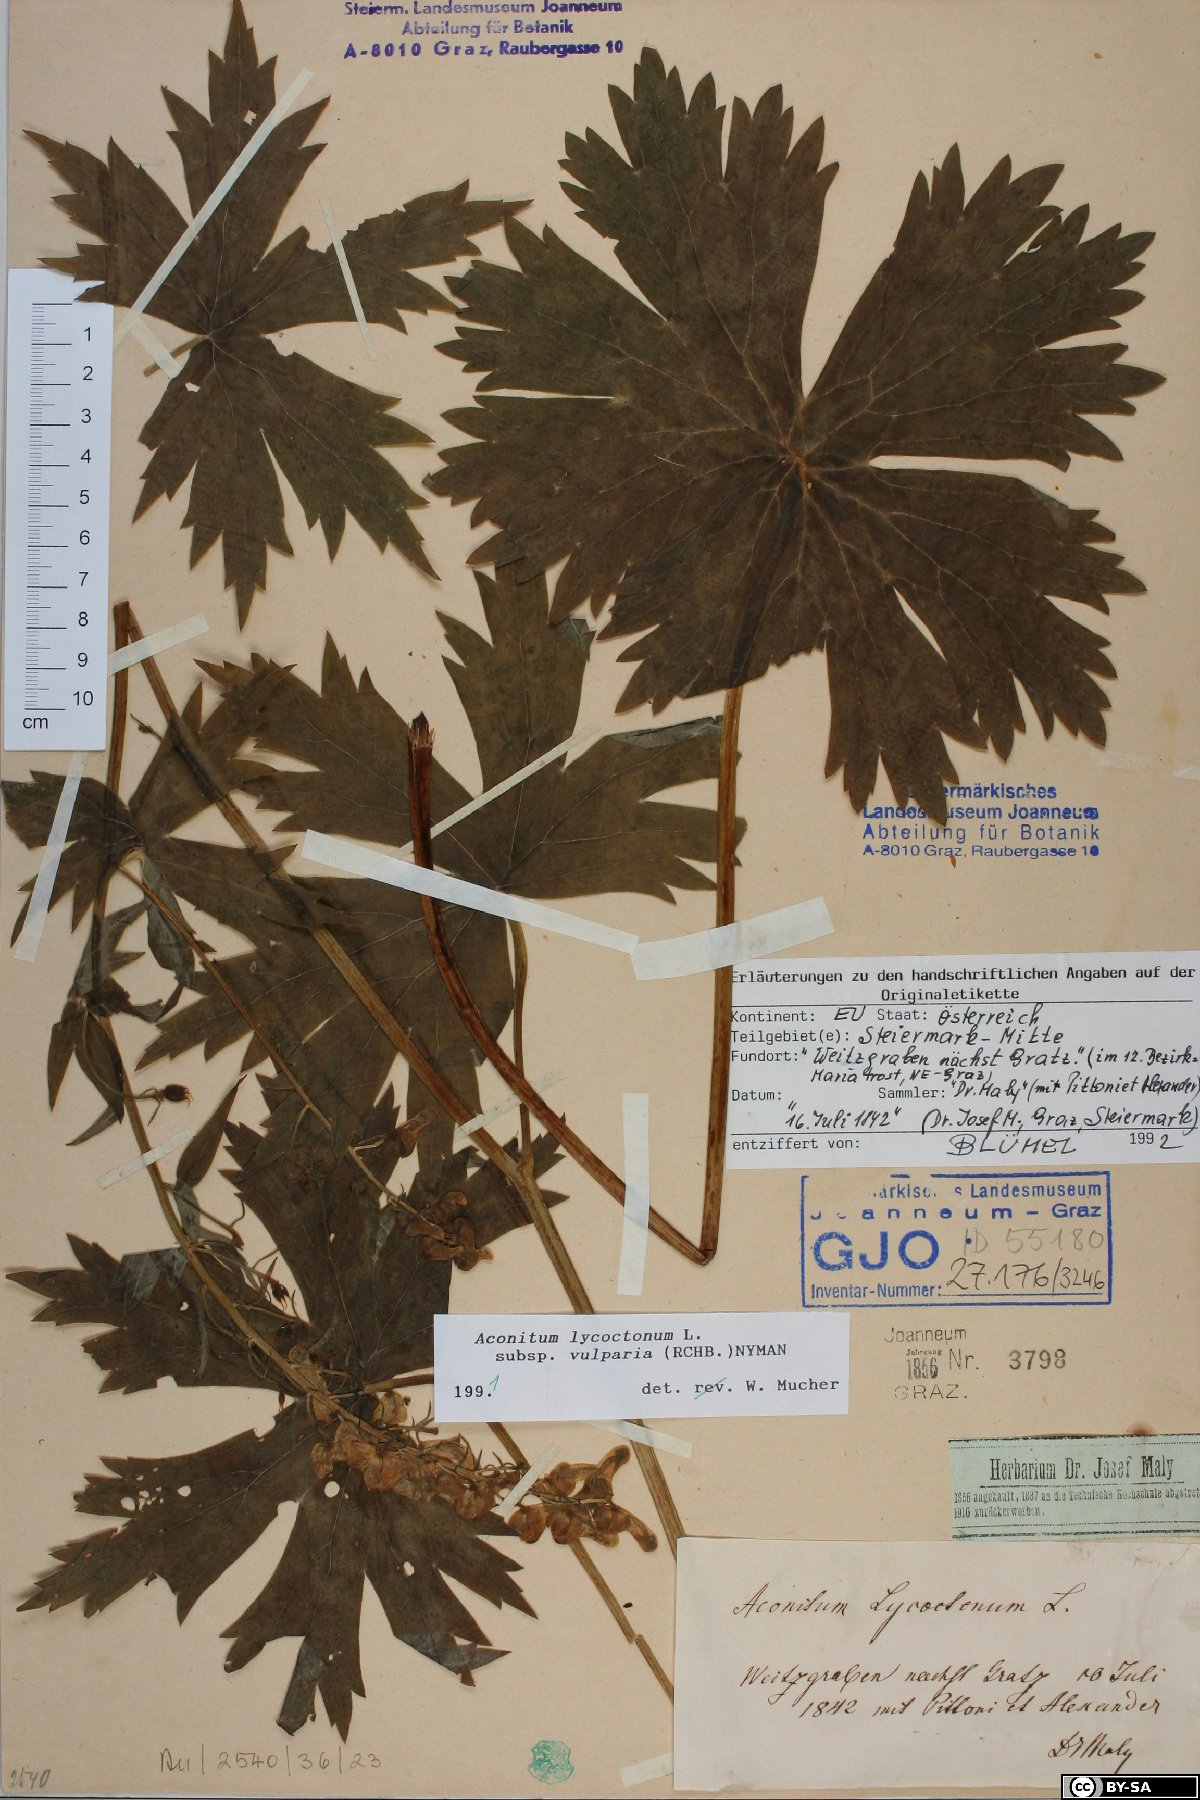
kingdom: Plantae
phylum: Tracheophyta
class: Magnoliopsida
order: Ranunculales
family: Ranunculaceae
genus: Aconitum
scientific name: Aconitum lycoctonum
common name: Wolf's-bane
